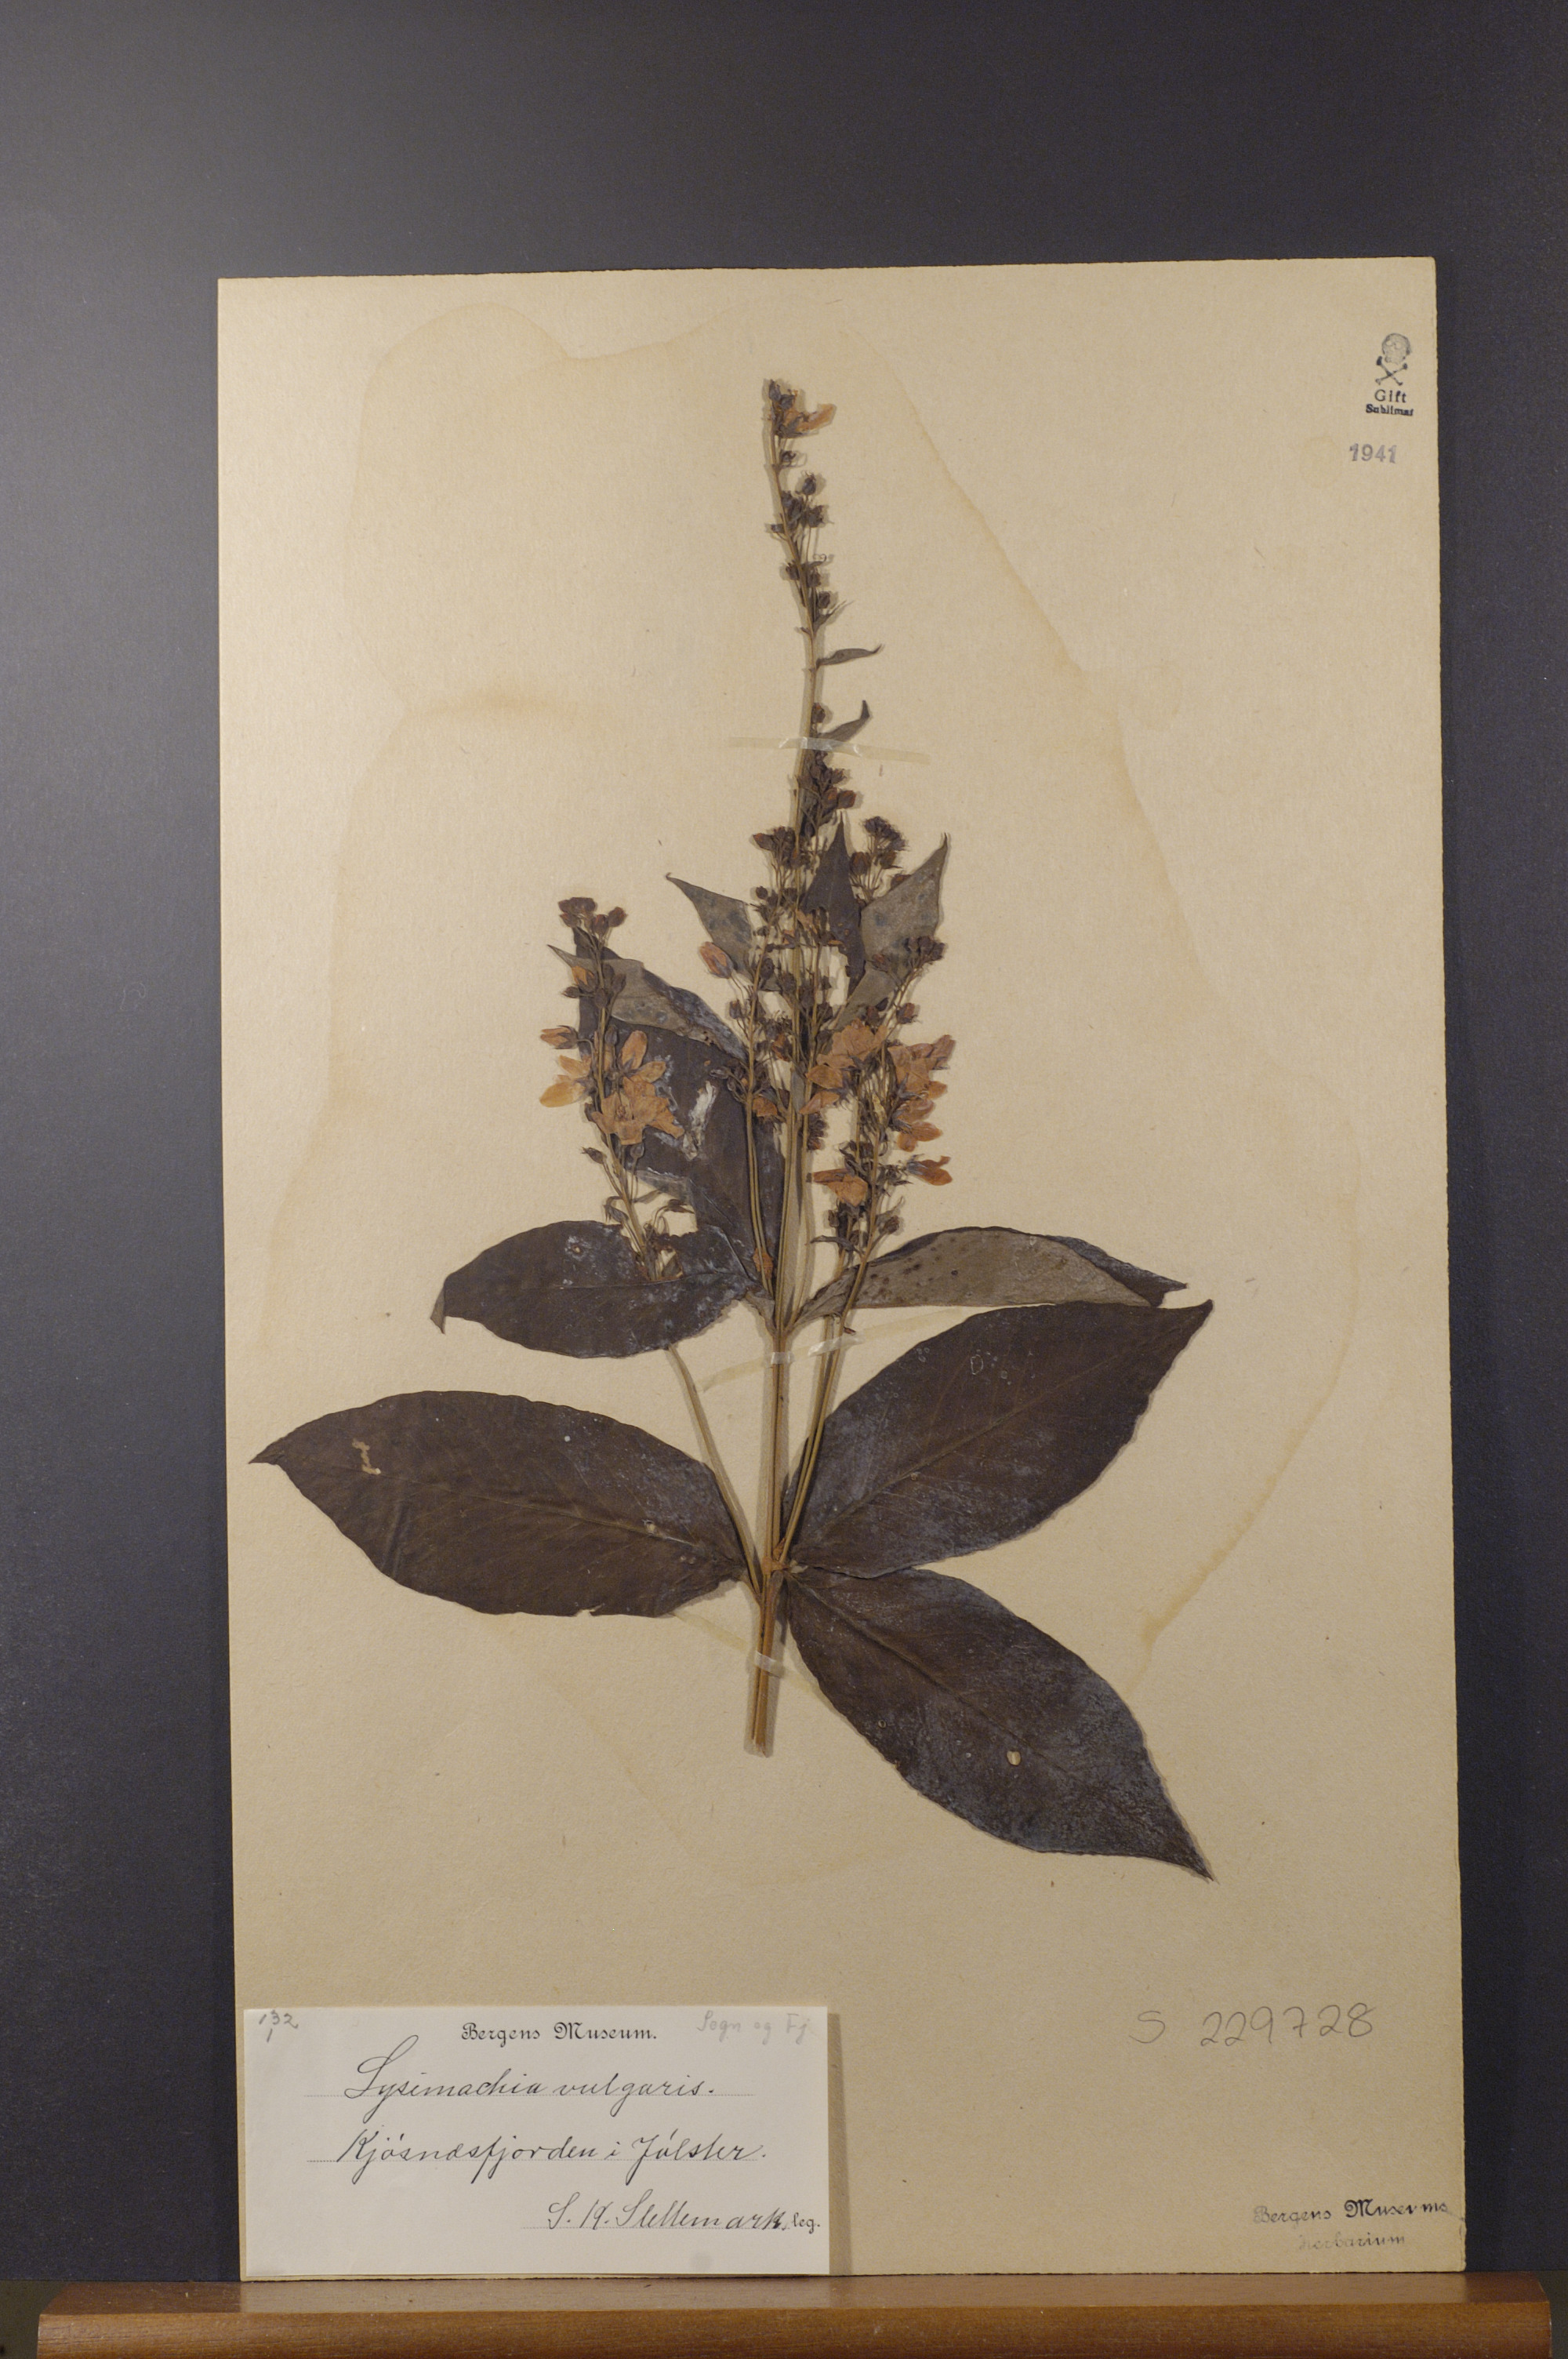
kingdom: Plantae
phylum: Tracheophyta
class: Magnoliopsida
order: Ericales
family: Primulaceae
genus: Lysimachia
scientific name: Lysimachia vulgaris
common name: Yellow loosestrife
